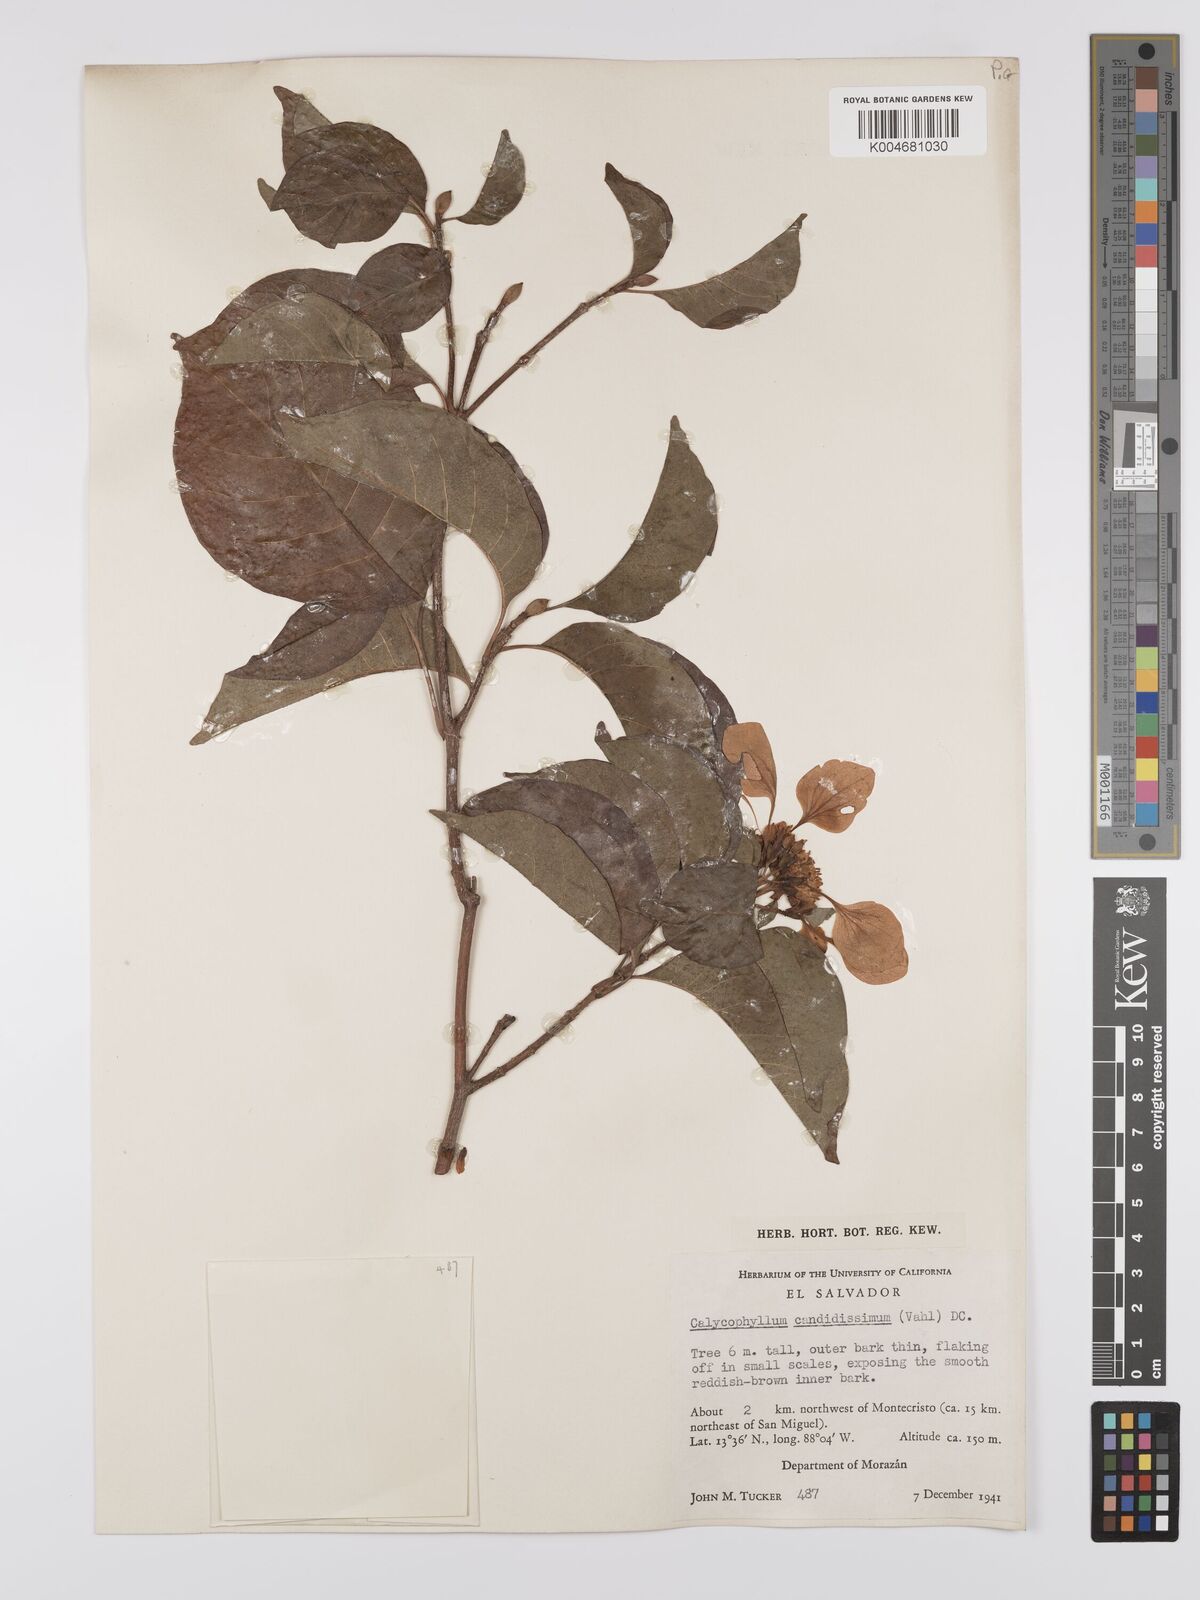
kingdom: Plantae
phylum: Tracheophyta
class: Magnoliopsida
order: Gentianales
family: Rubiaceae
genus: Calycophyllum
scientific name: Calycophyllum candidissimum
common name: Dagame
